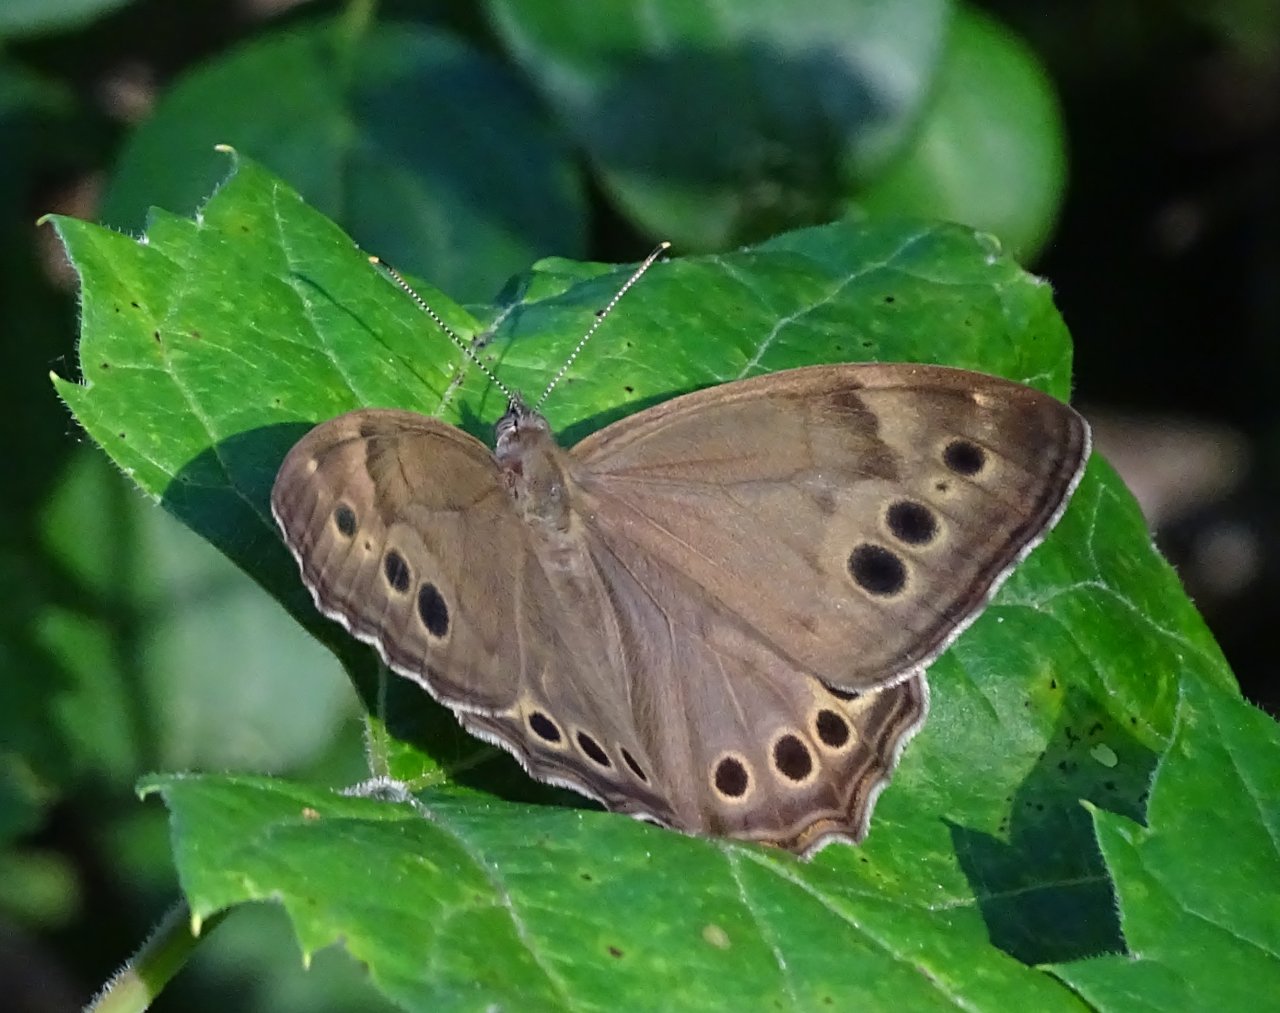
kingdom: Animalia
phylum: Arthropoda
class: Insecta
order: Lepidoptera
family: Nymphalidae
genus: Lethe
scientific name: Lethe anthedon
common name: Northern Pearly-Eye
